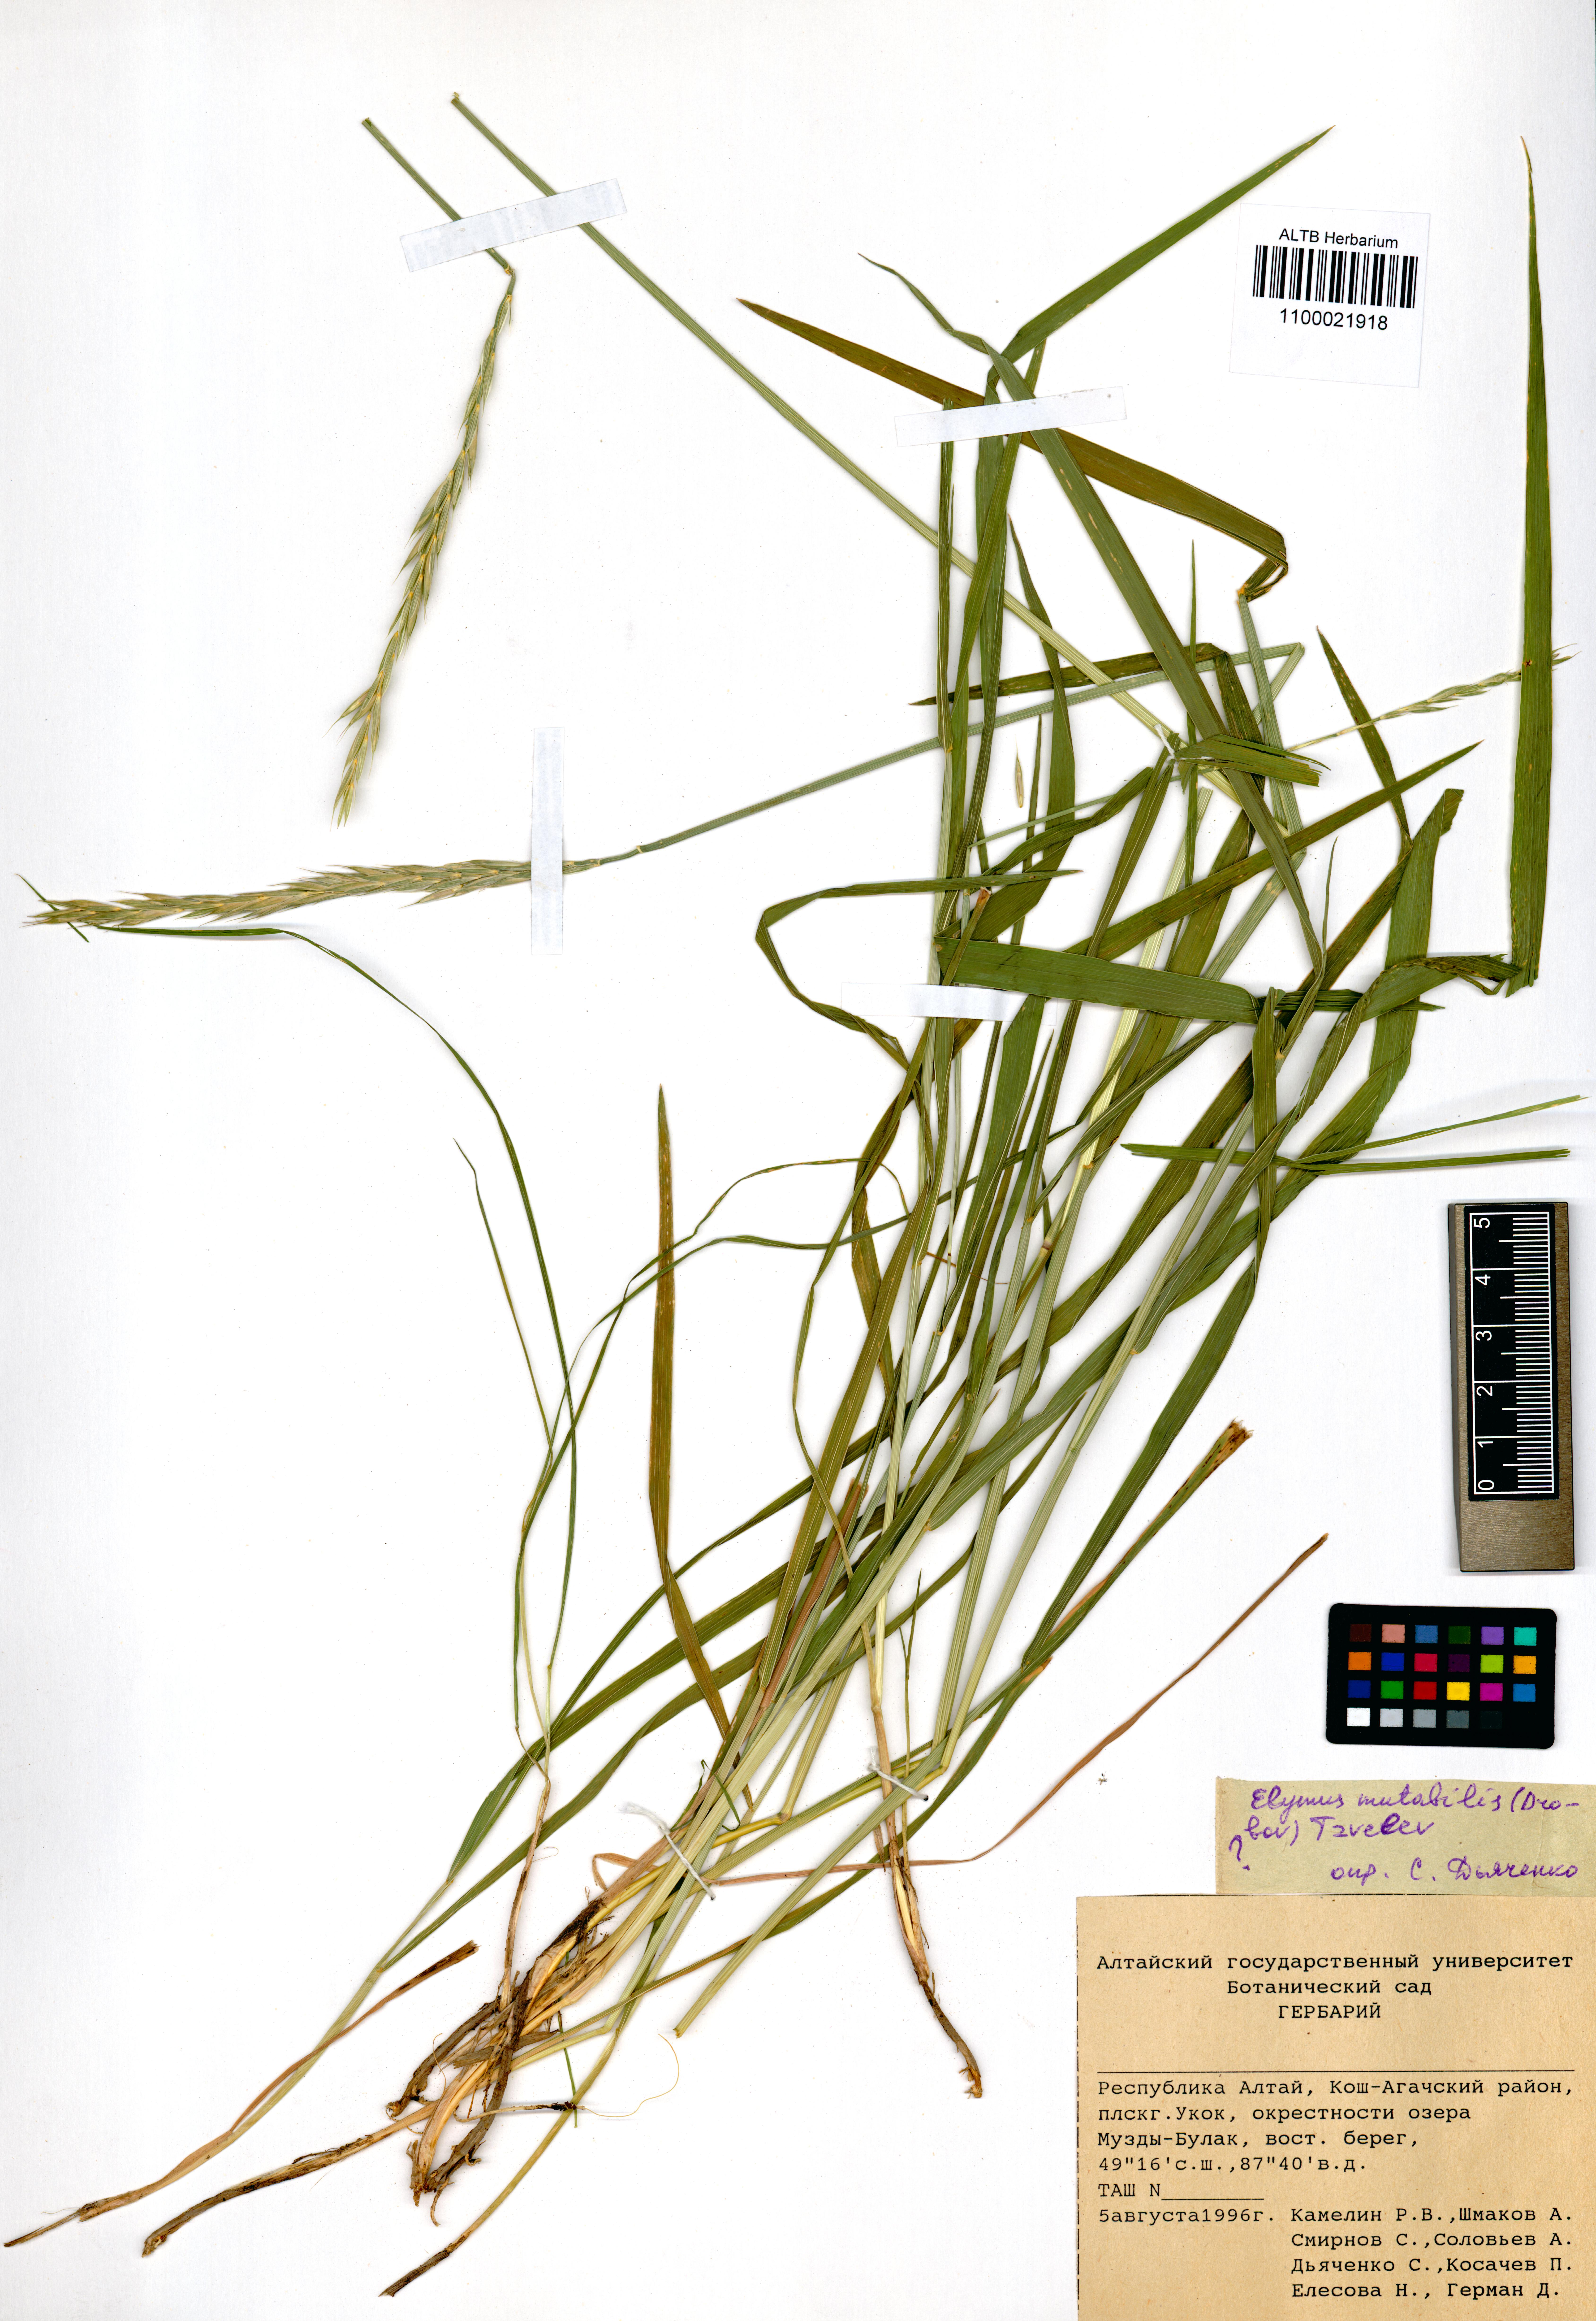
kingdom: Plantae
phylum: Tracheophyta
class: Liliopsida
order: Poales
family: Poaceae
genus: Elymus
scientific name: Elymus mutabilis
